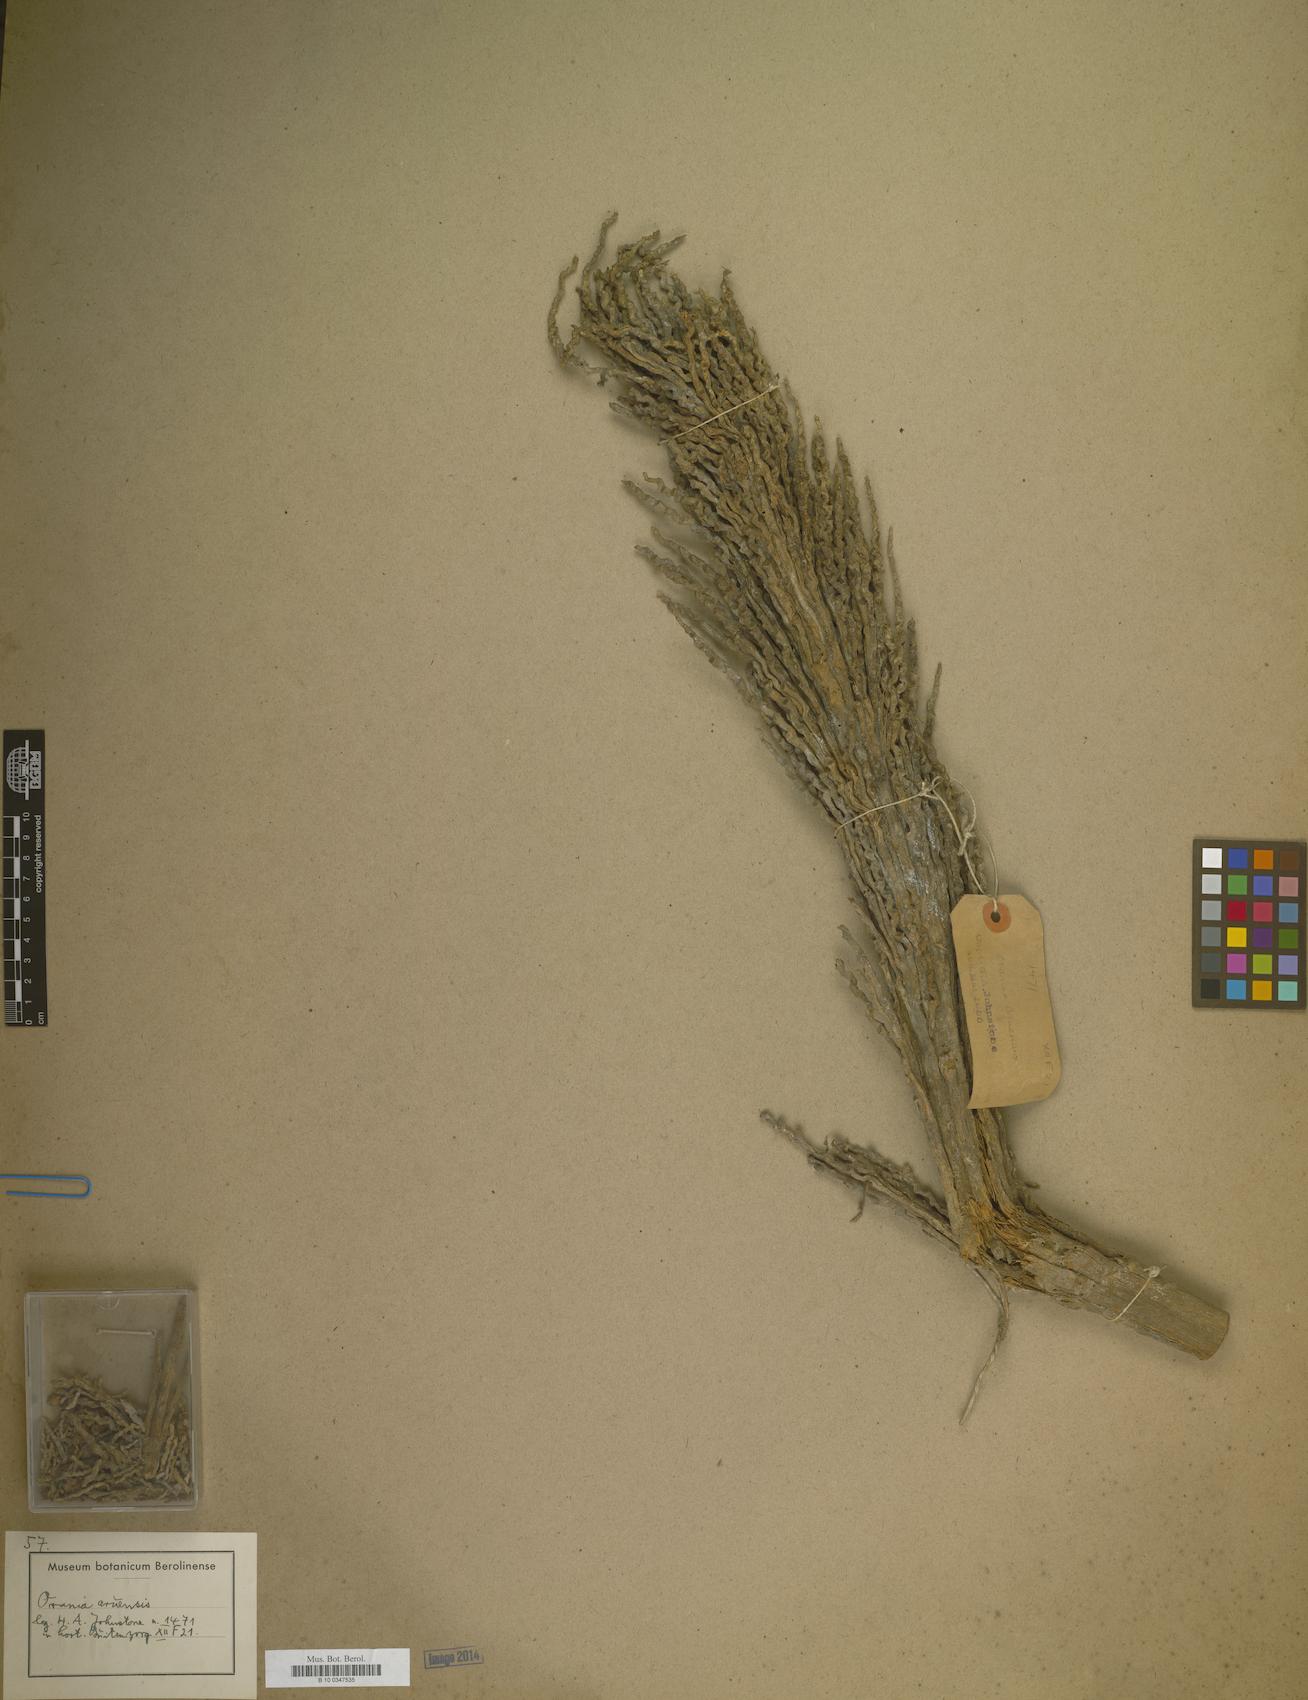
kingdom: Plantae
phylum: Tracheophyta
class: Liliopsida
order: Arecales
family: Arecaceae
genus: Orania
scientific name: Orania regalis
